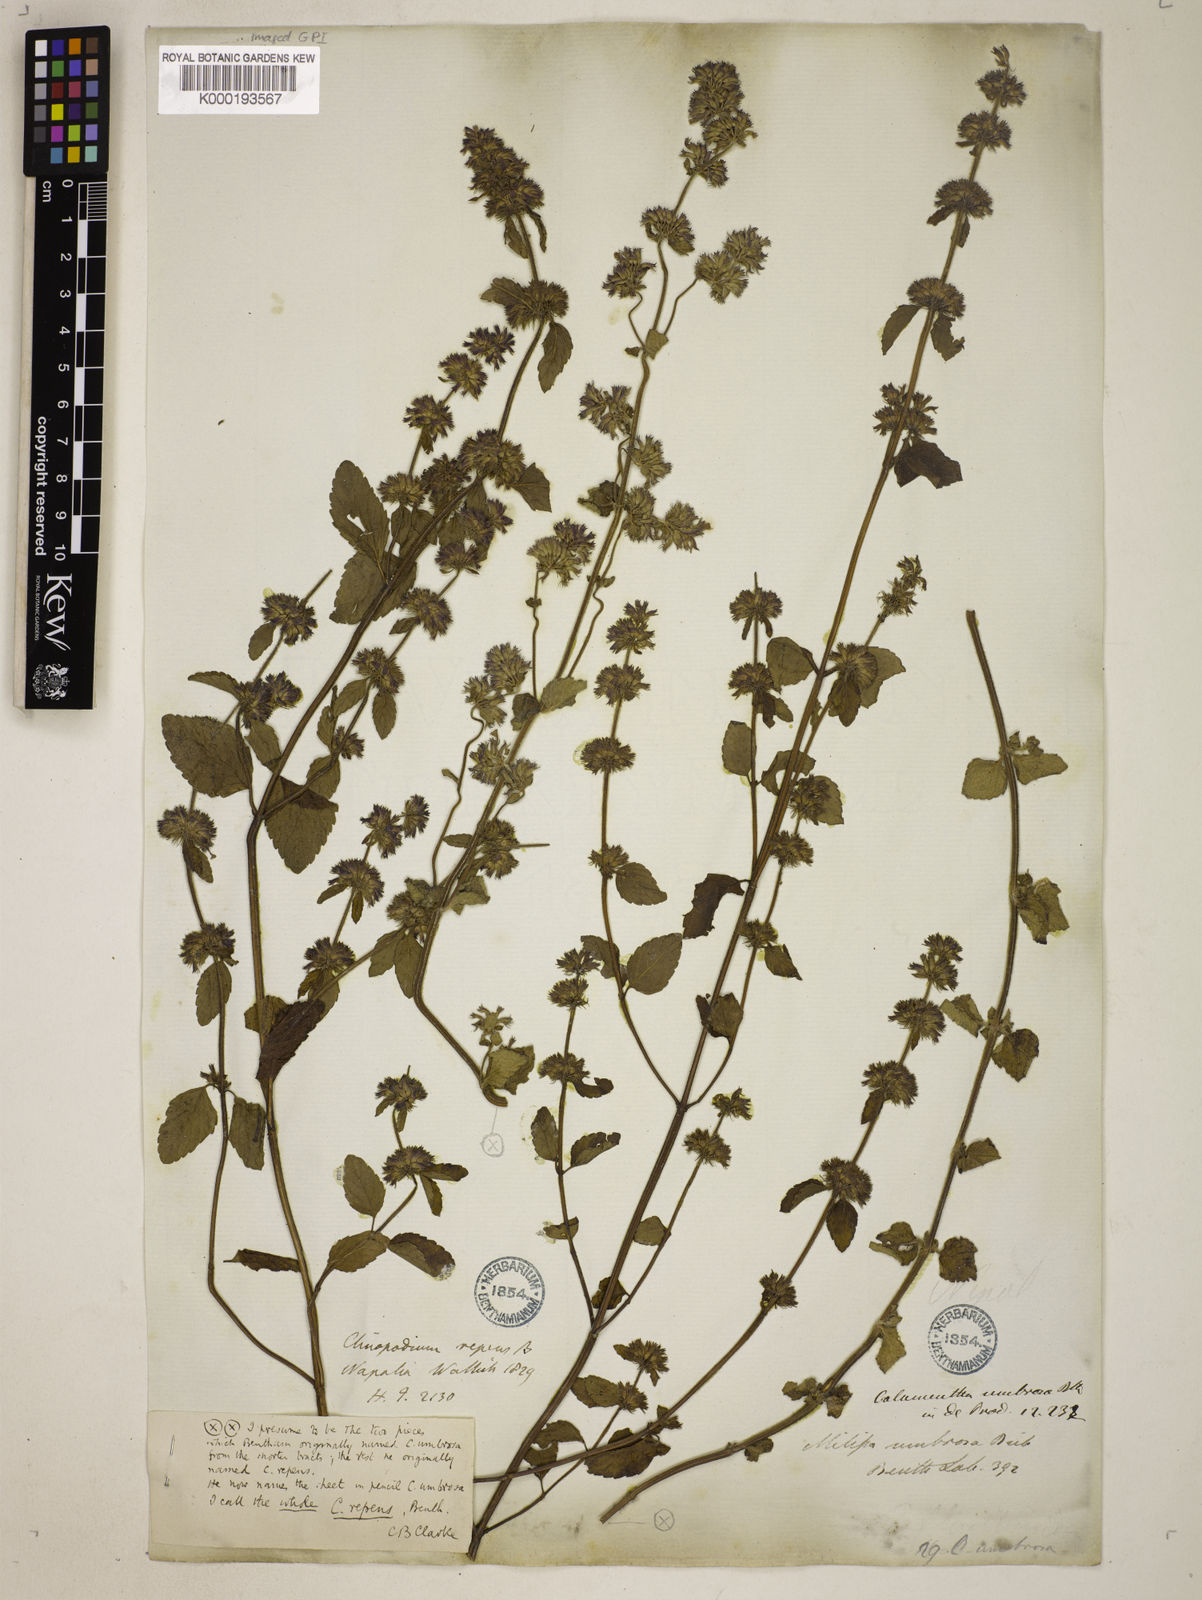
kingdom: Plantae
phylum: Tracheophyta
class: Magnoliopsida
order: Lamiales
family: Lamiaceae
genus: Clinopodium
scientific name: Clinopodium umbrosum
